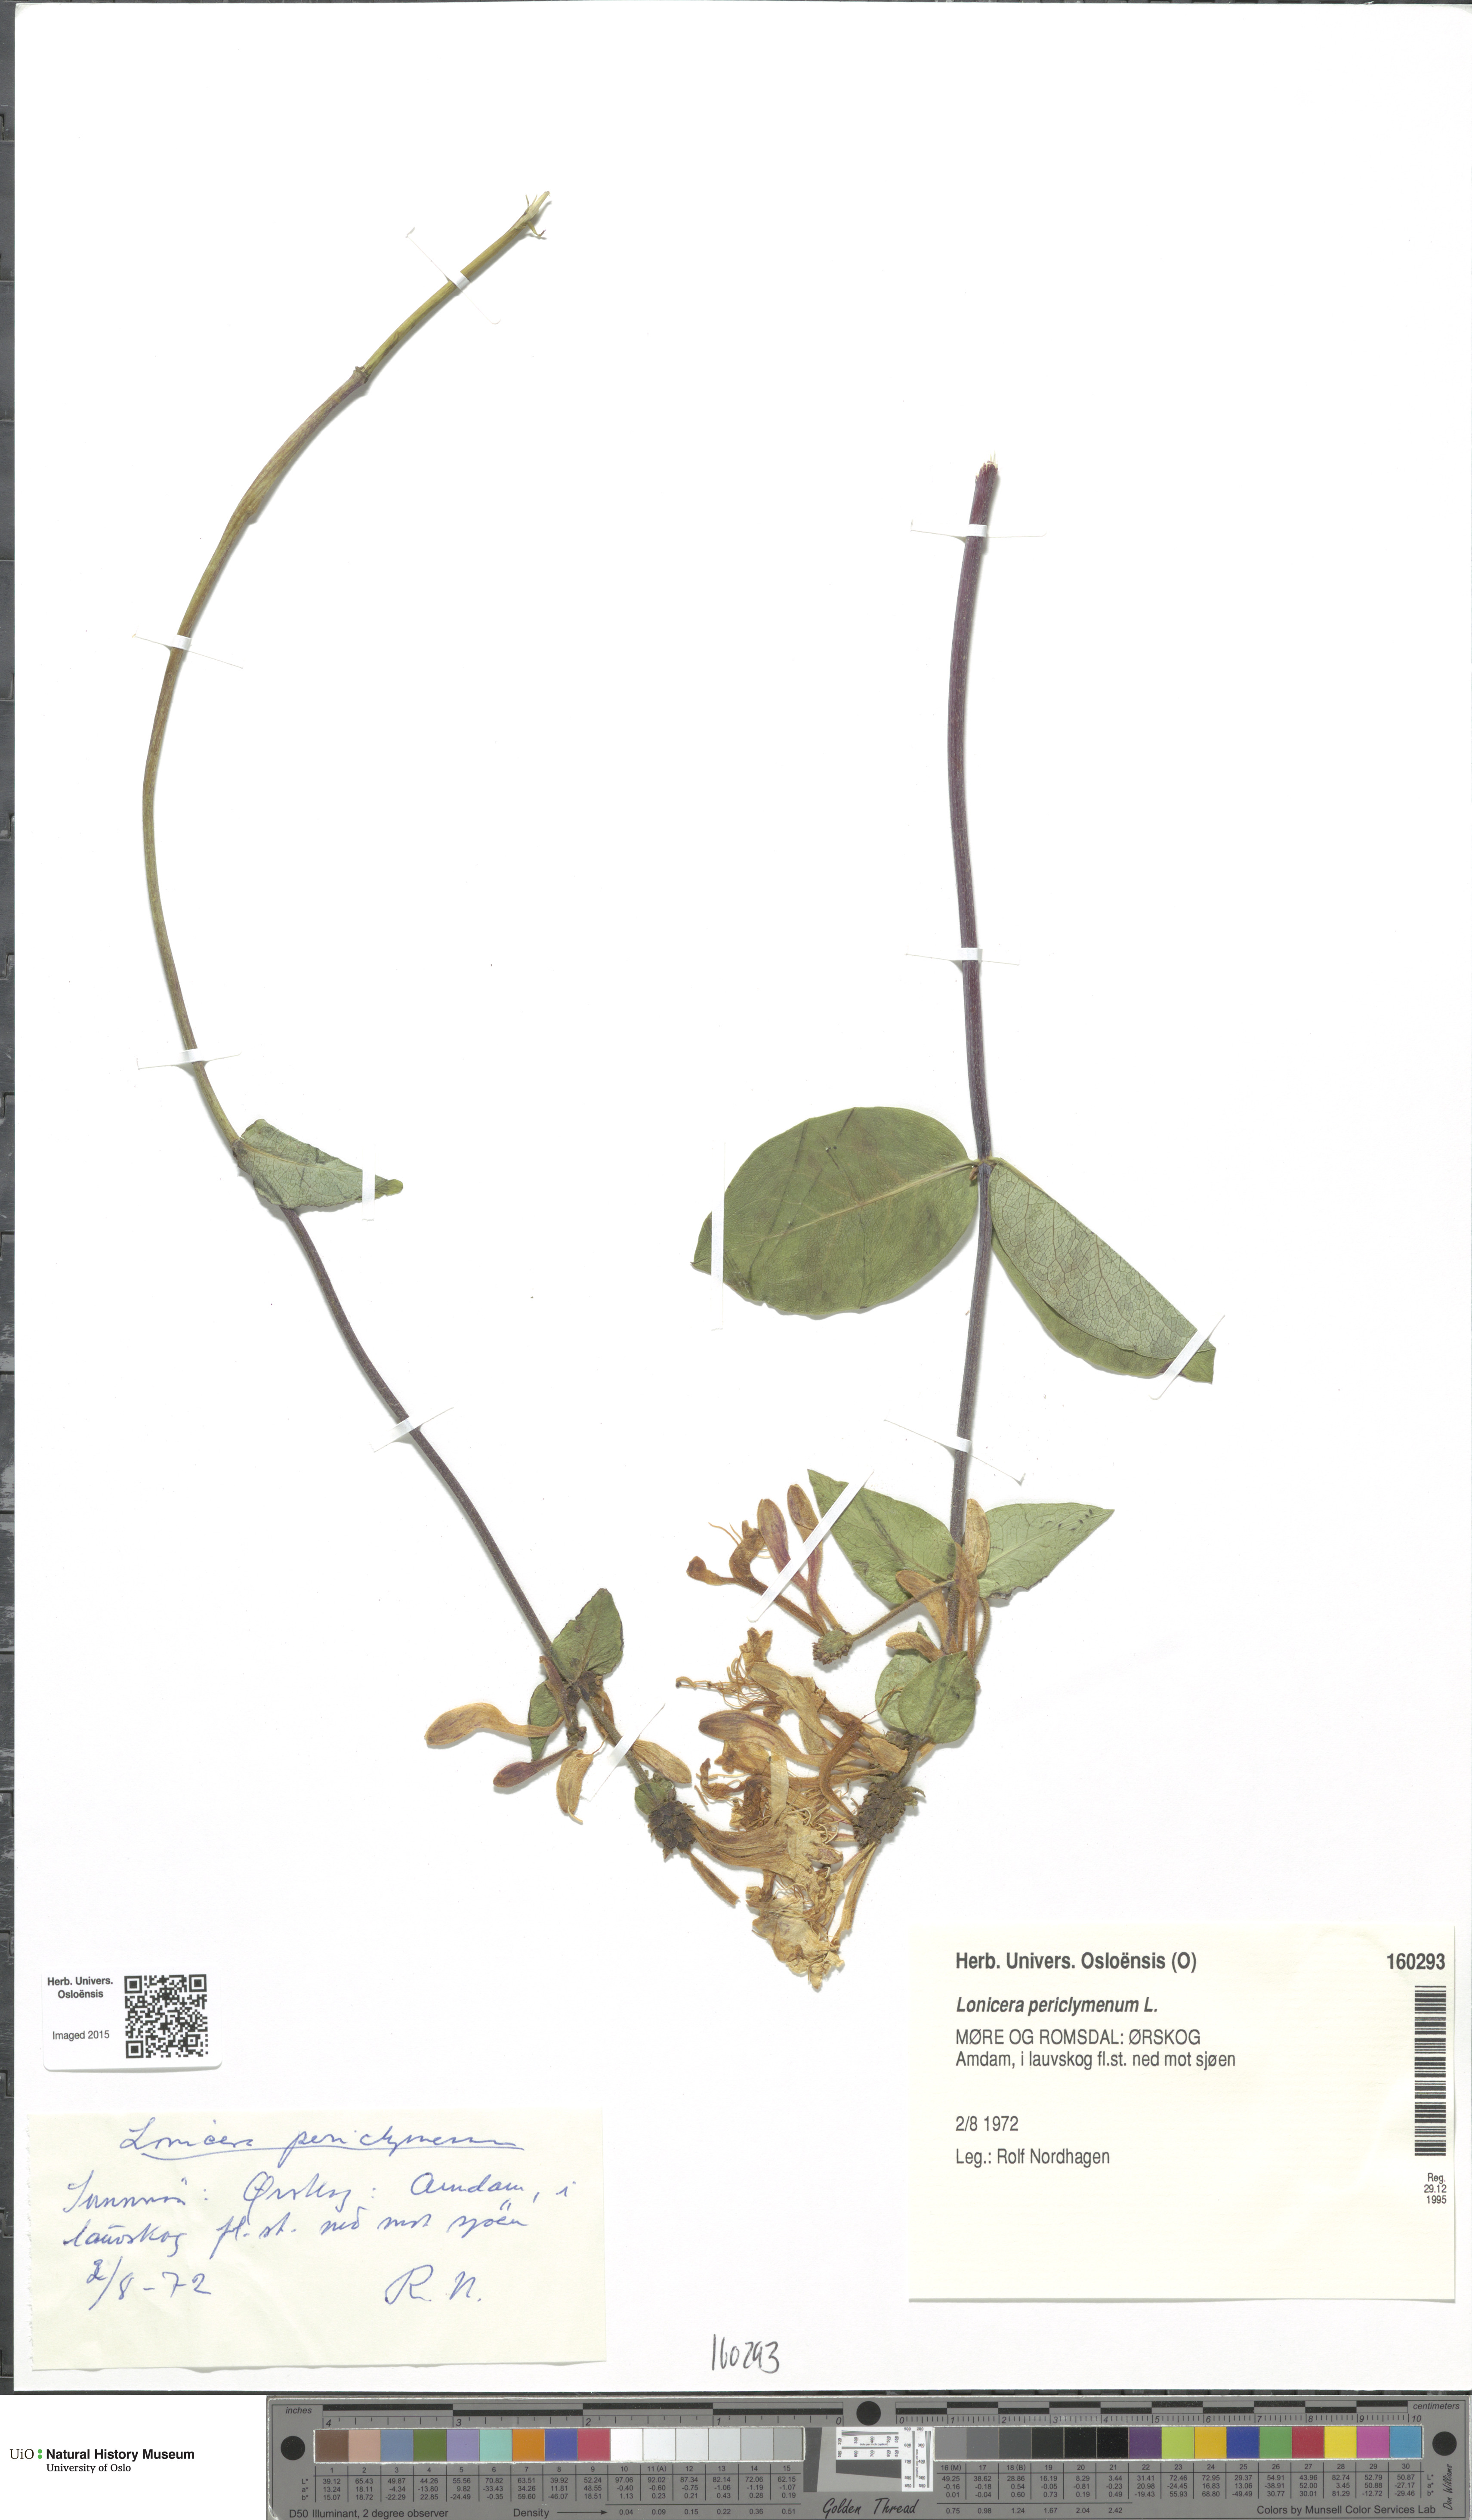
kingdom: Plantae
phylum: Tracheophyta
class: Magnoliopsida
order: Dipsacales
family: Caprifoliaceae
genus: Lonicera
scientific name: Lonicera periclymenum
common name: European honeysuckle
